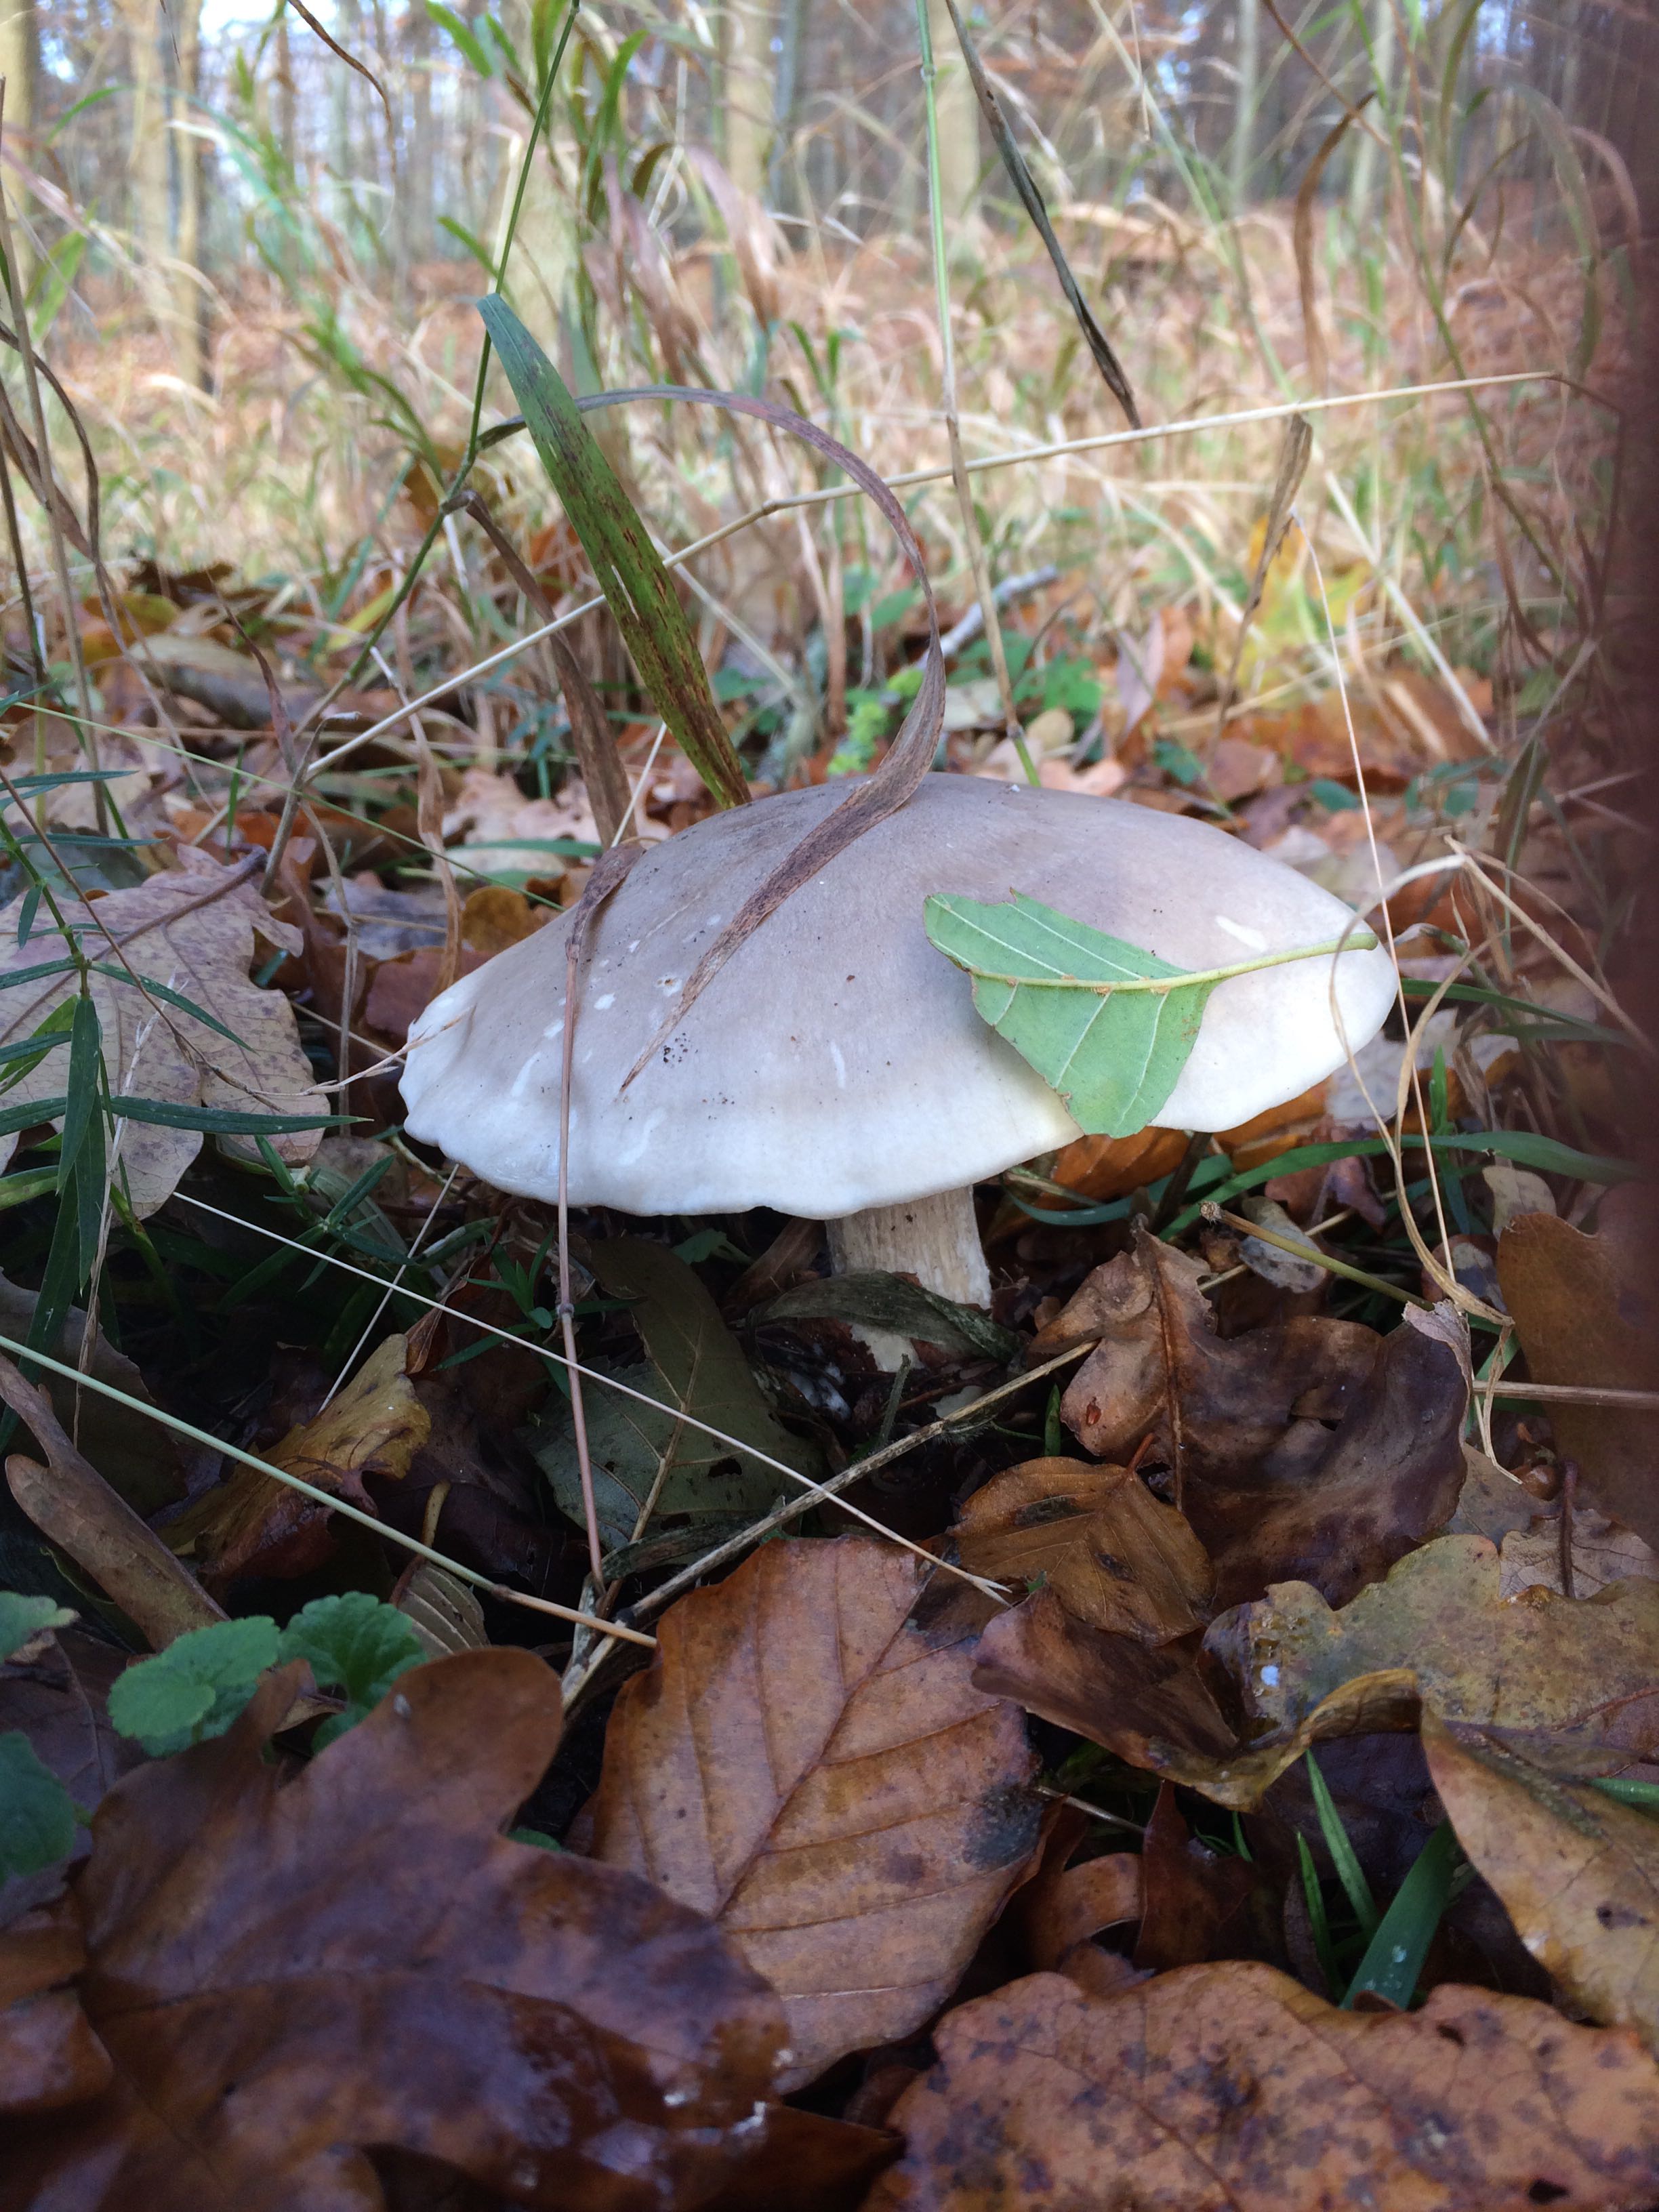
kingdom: Fungi
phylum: Basidiomycota
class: Agaricomycetes
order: Agaricales
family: Tricholomataceae
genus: Clitocybe
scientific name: Clitocybe nebularis
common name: tåge-tragthat
